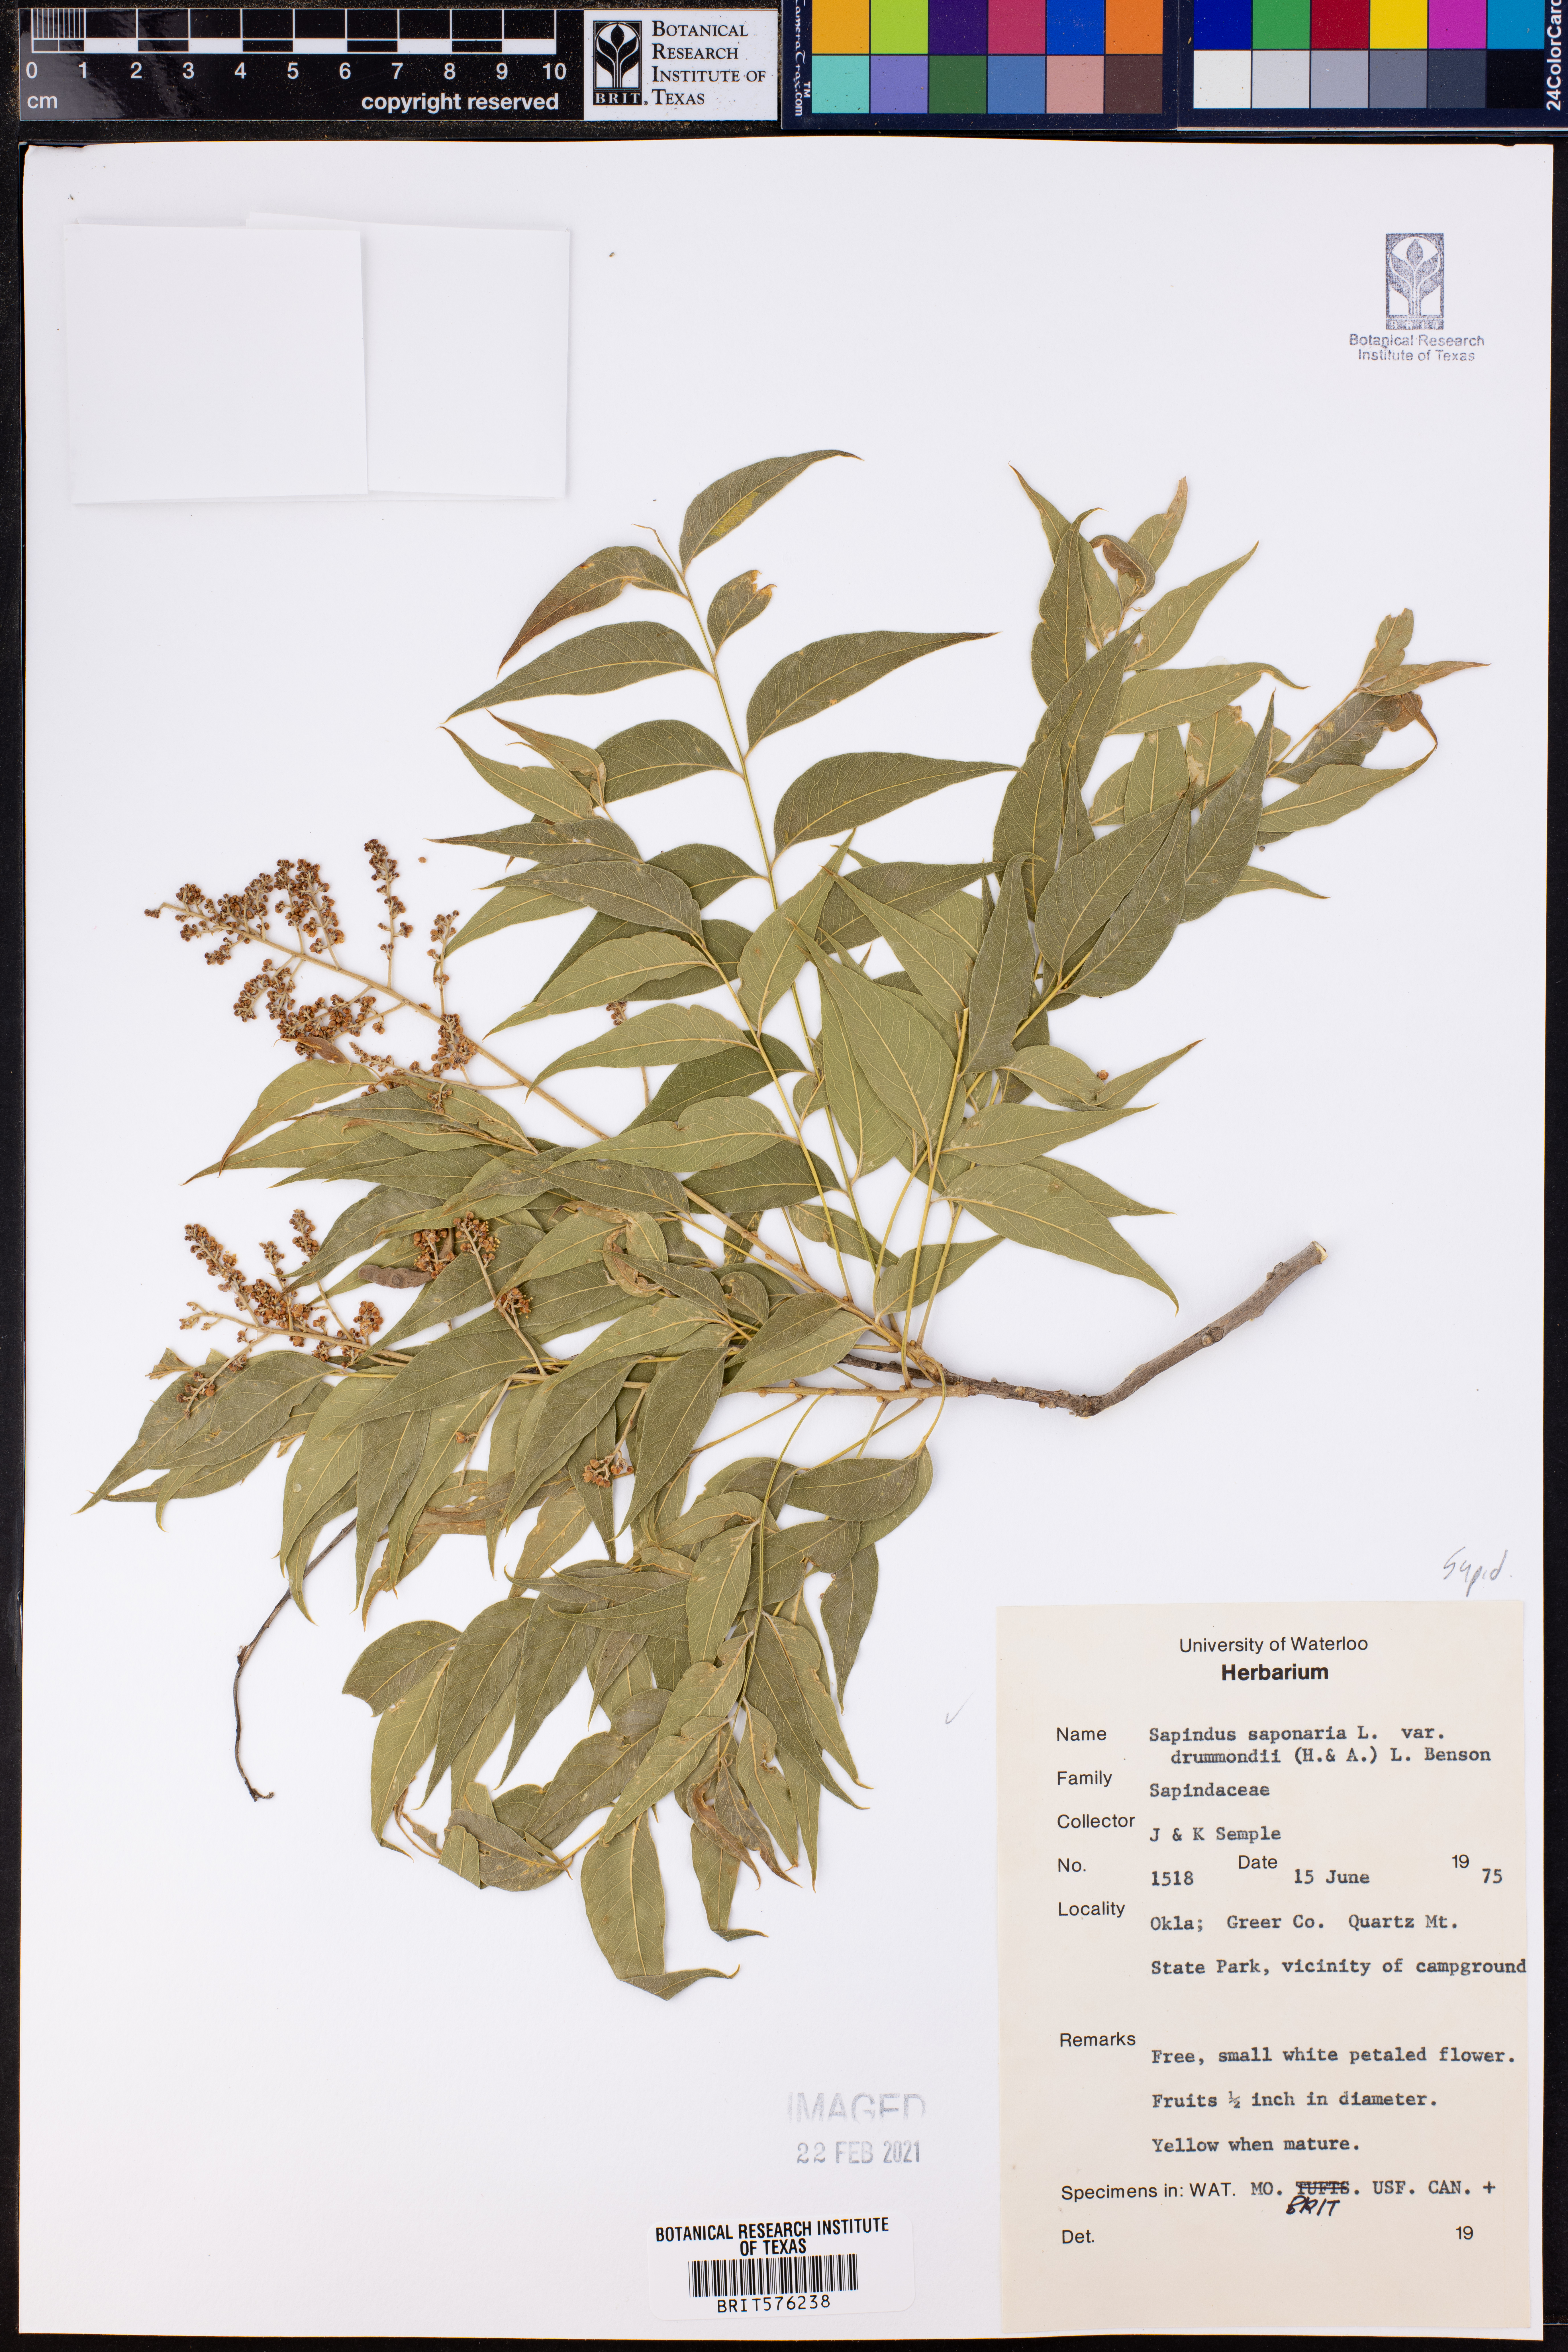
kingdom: Plantae
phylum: Tracheophyta
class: Magnoliopsida
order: Sapindales
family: Sapindaceae
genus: Sapindus
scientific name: Sapindus drummondii
